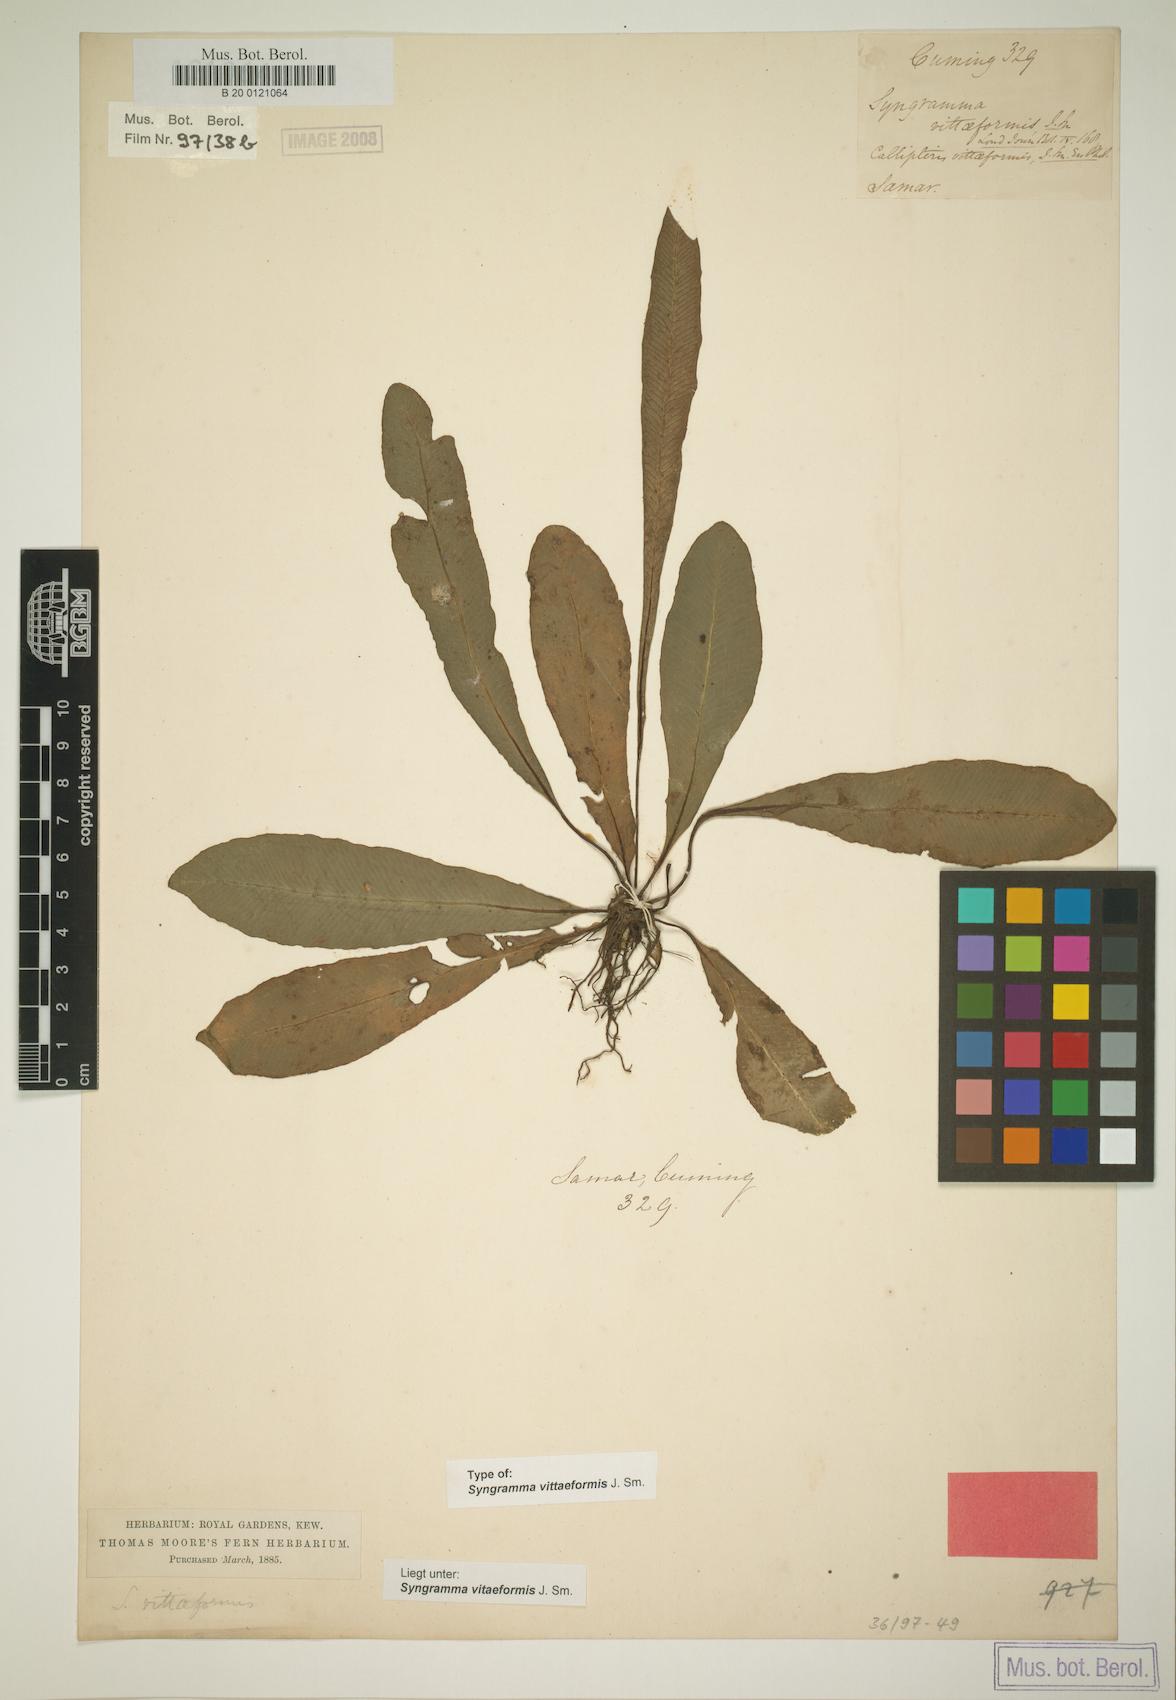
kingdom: Plantae
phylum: Tracheophyta
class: Polypodiopsida
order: Polypodiales
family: Pteridaceae
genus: Syngramma
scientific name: Syngramma vittaeformis
